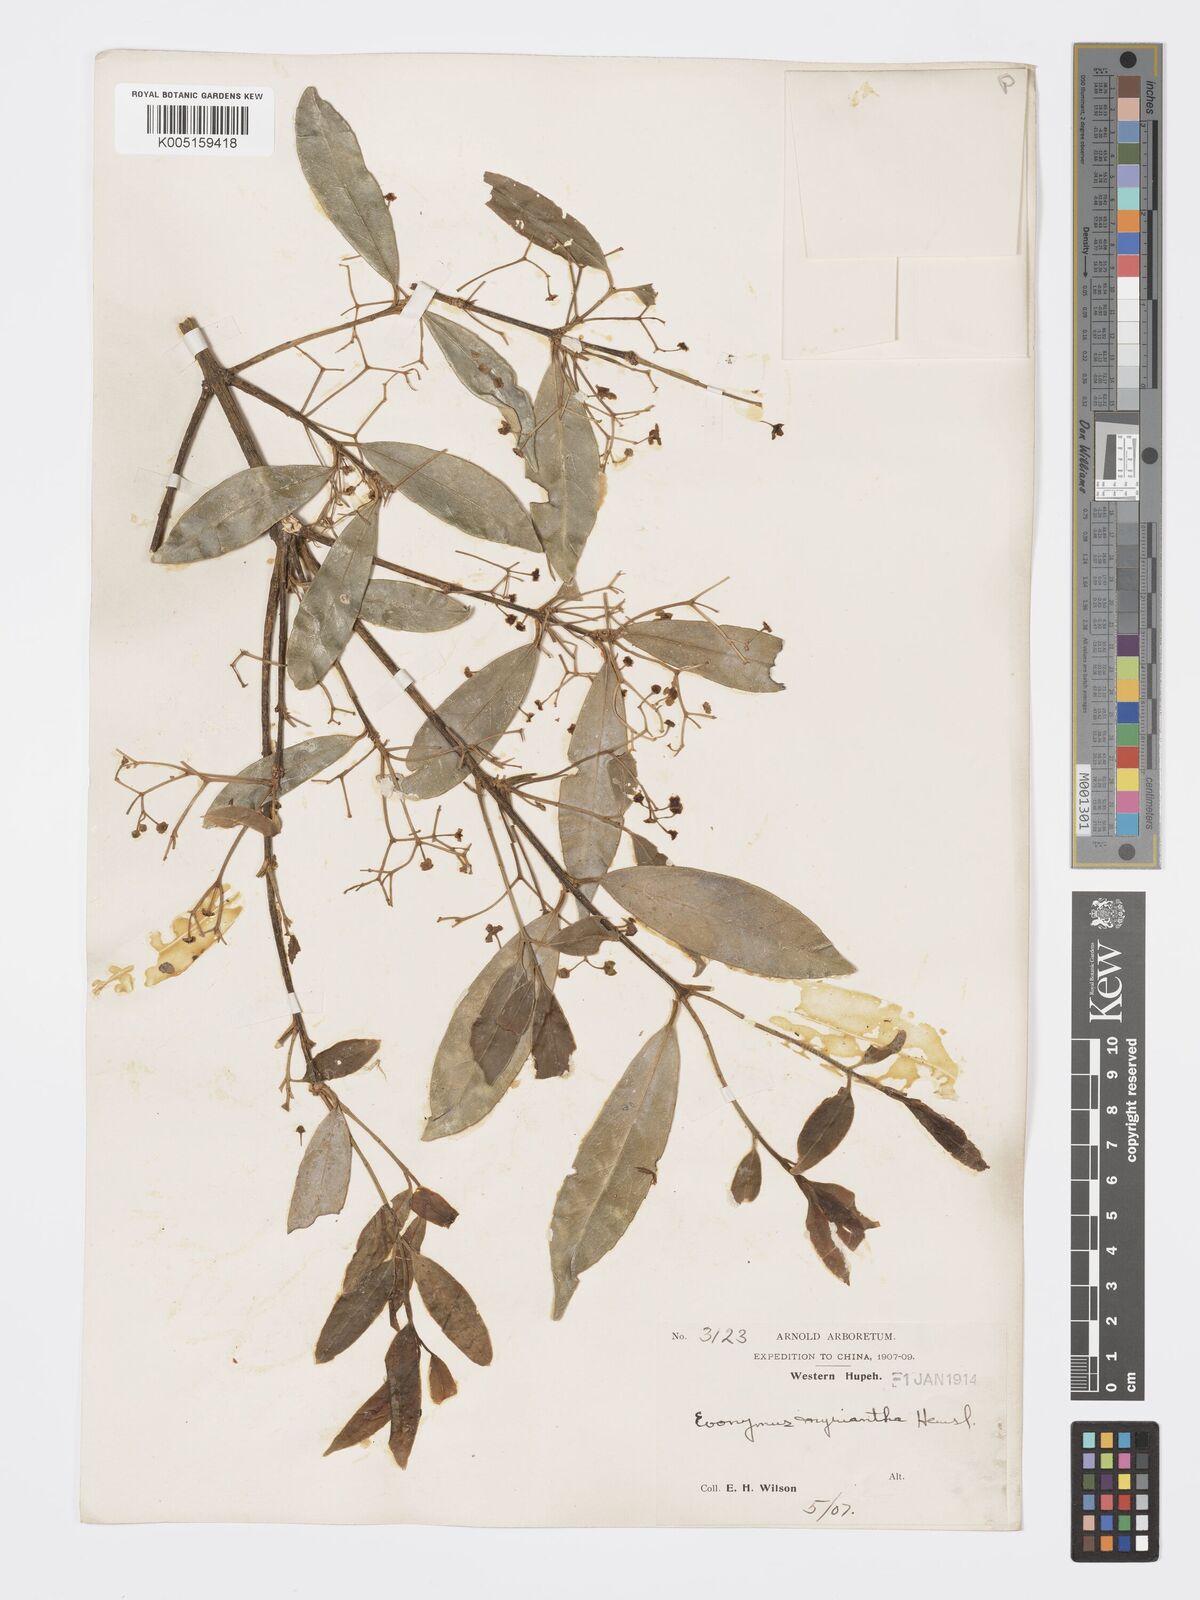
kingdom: Plantae
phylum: Tracheophyta
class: Magnoliopsida
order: Celastrales
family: Celastraceae
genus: Euonymus
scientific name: Euonymus myrianthus
